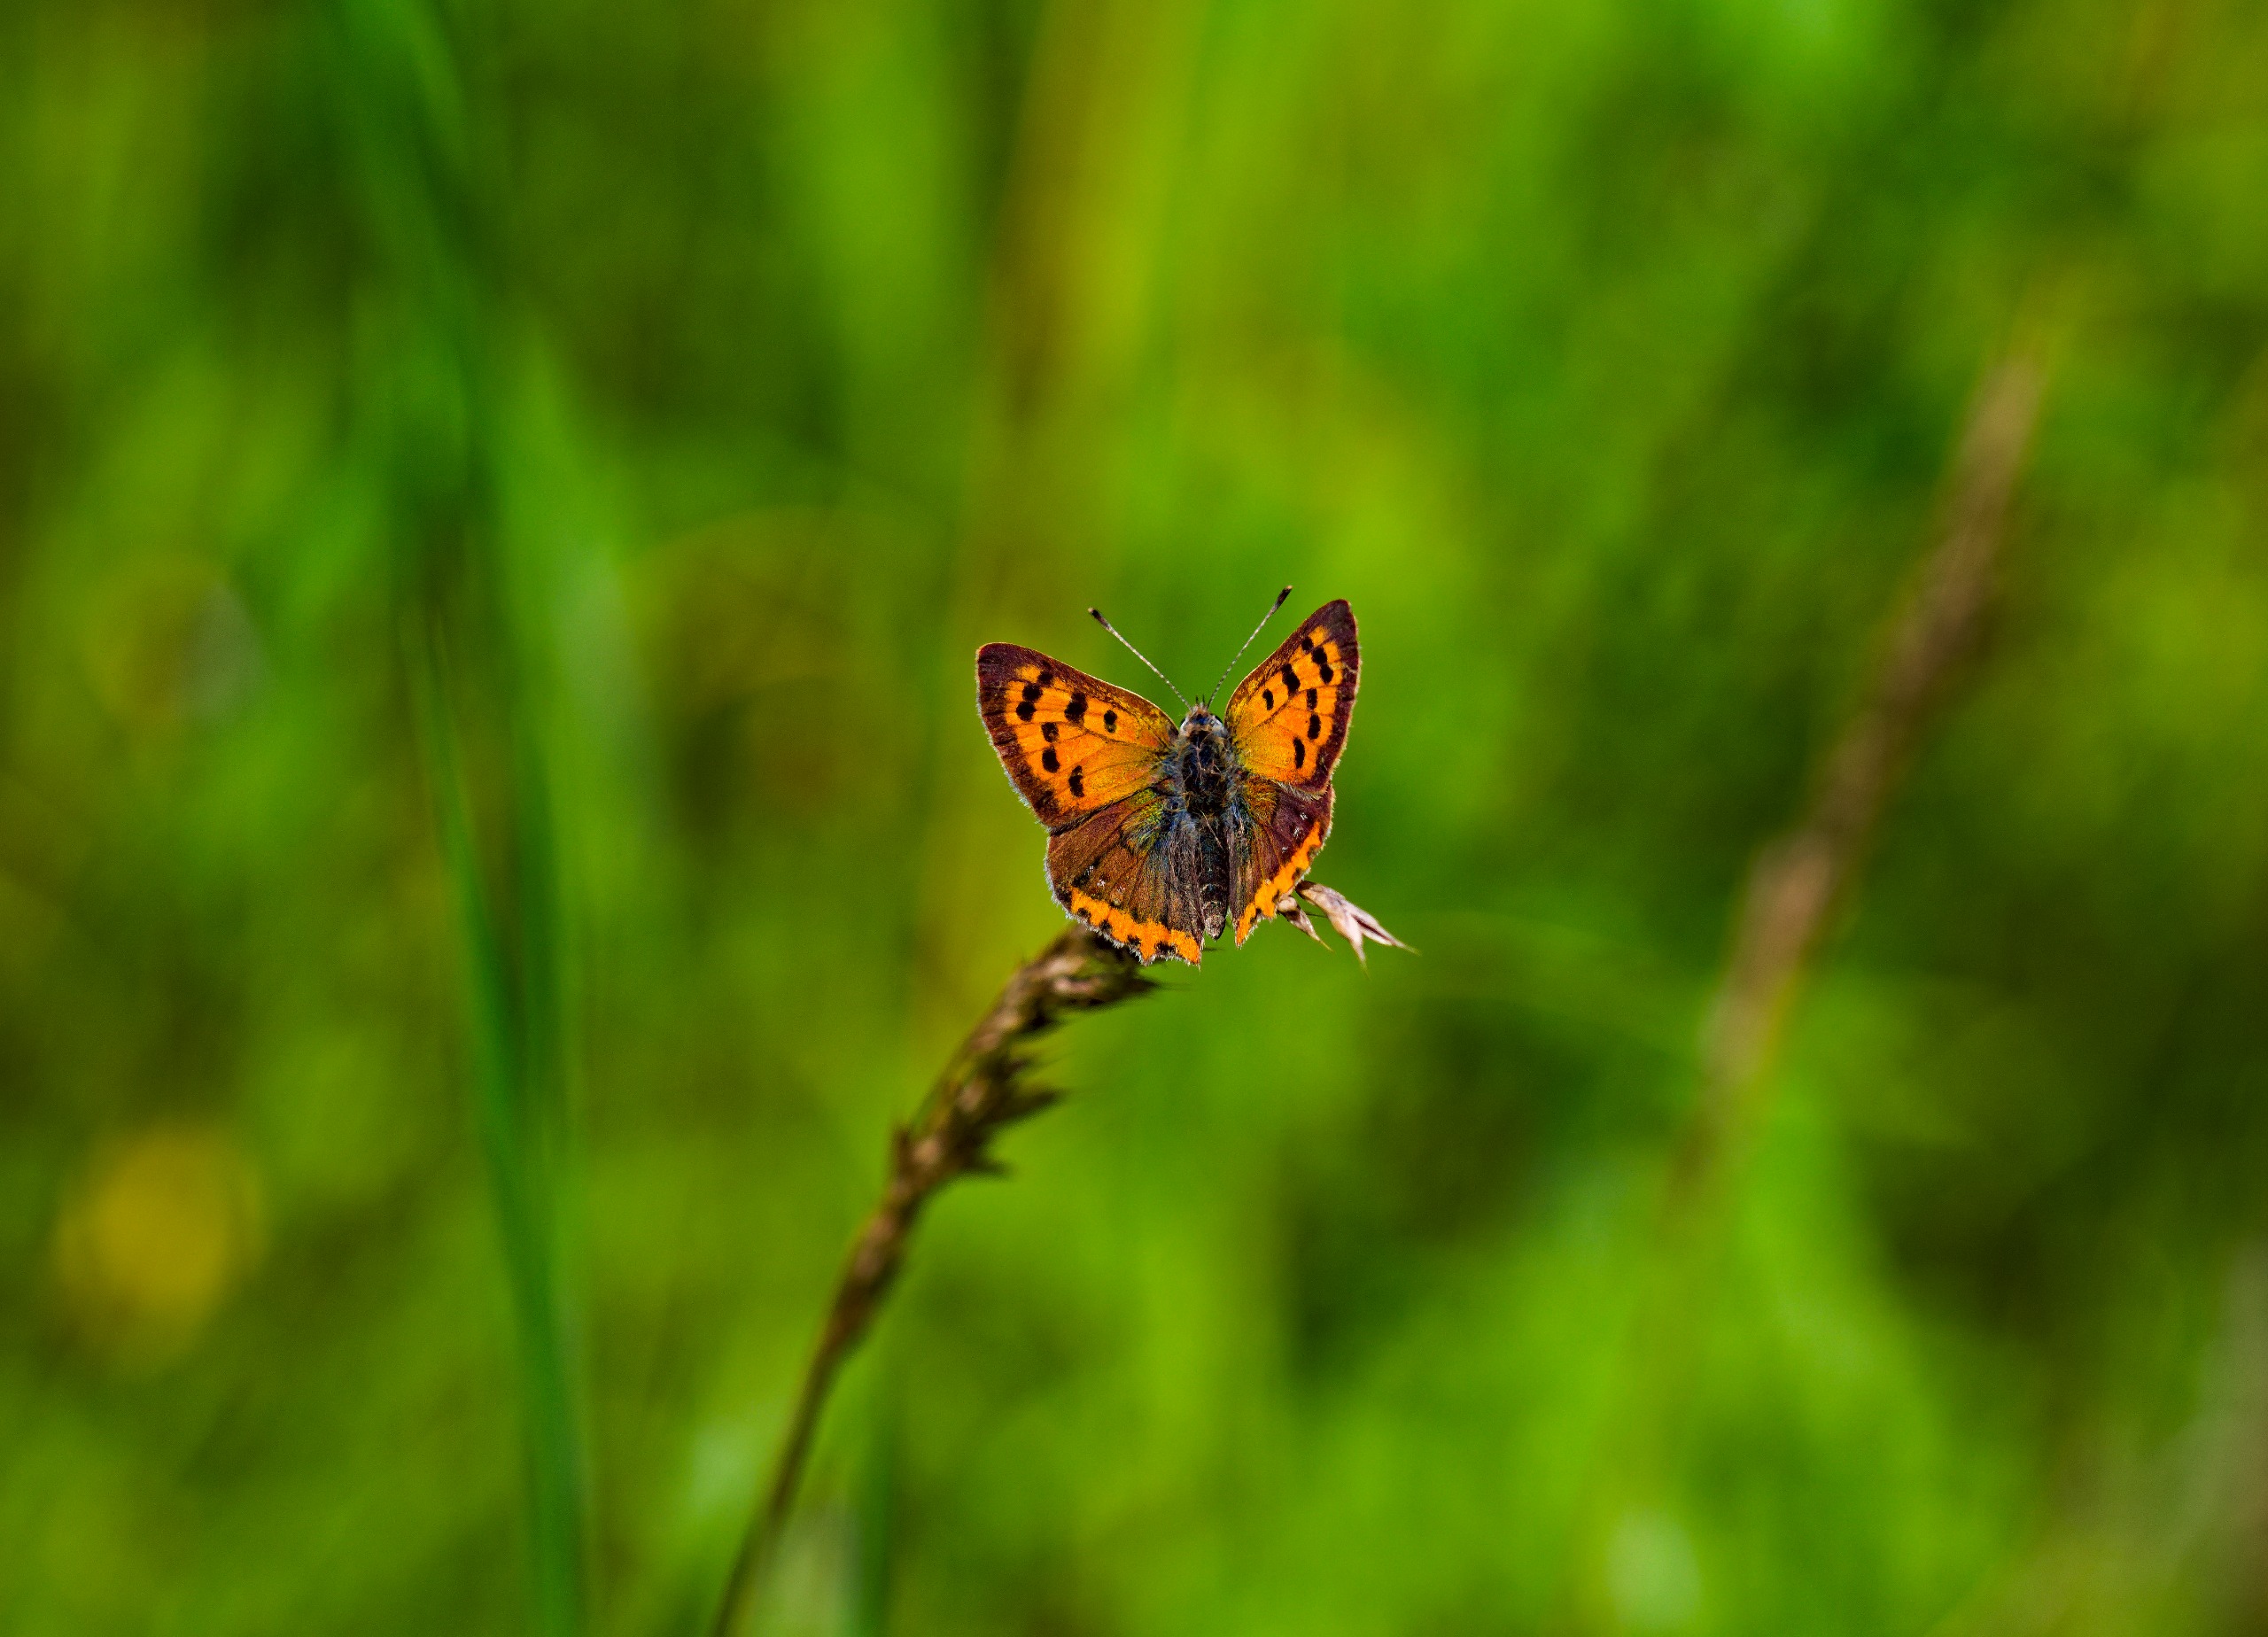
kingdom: Animalia
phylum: Arthropoda
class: Insecta
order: Lepidoptera
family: Lycaenidae
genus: Lycaena
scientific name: Lycaena phlaeas
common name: Lille ildfugl
